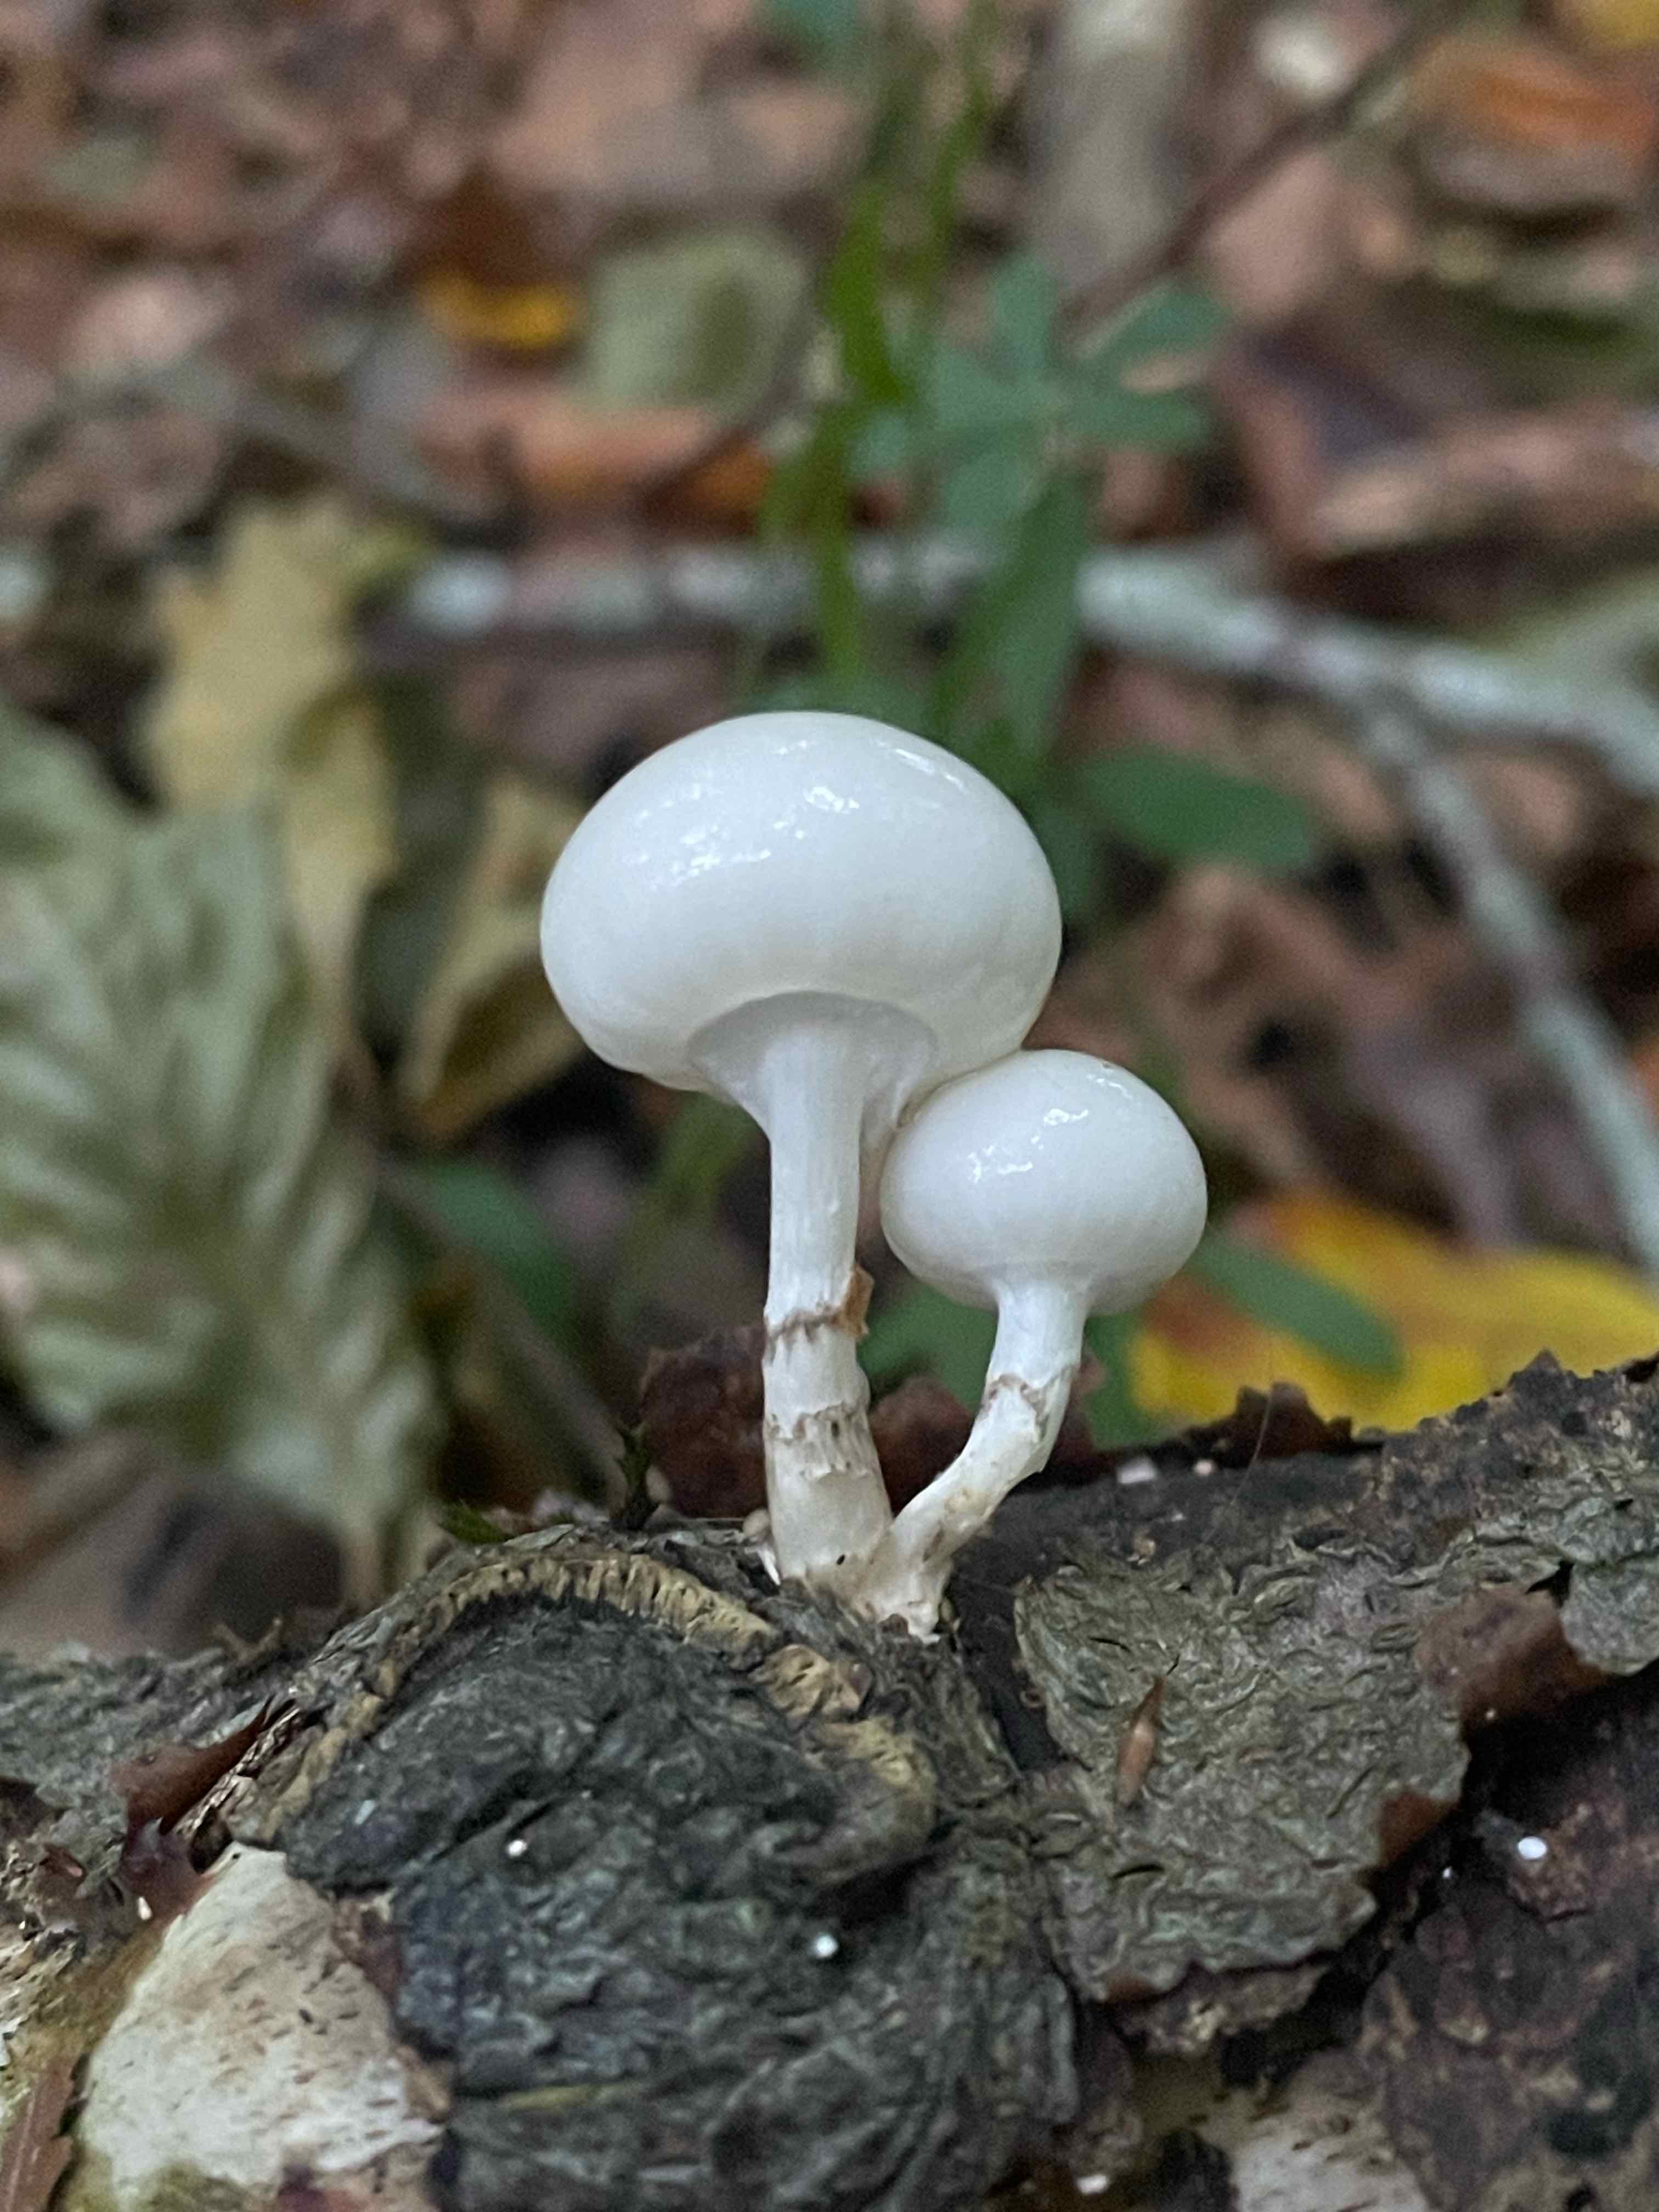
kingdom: Fungi
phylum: Basidiomycota
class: Agaricomycetes
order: Agaricales
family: Physalacriaceae
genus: Mucidula
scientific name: Mucidula mucida
